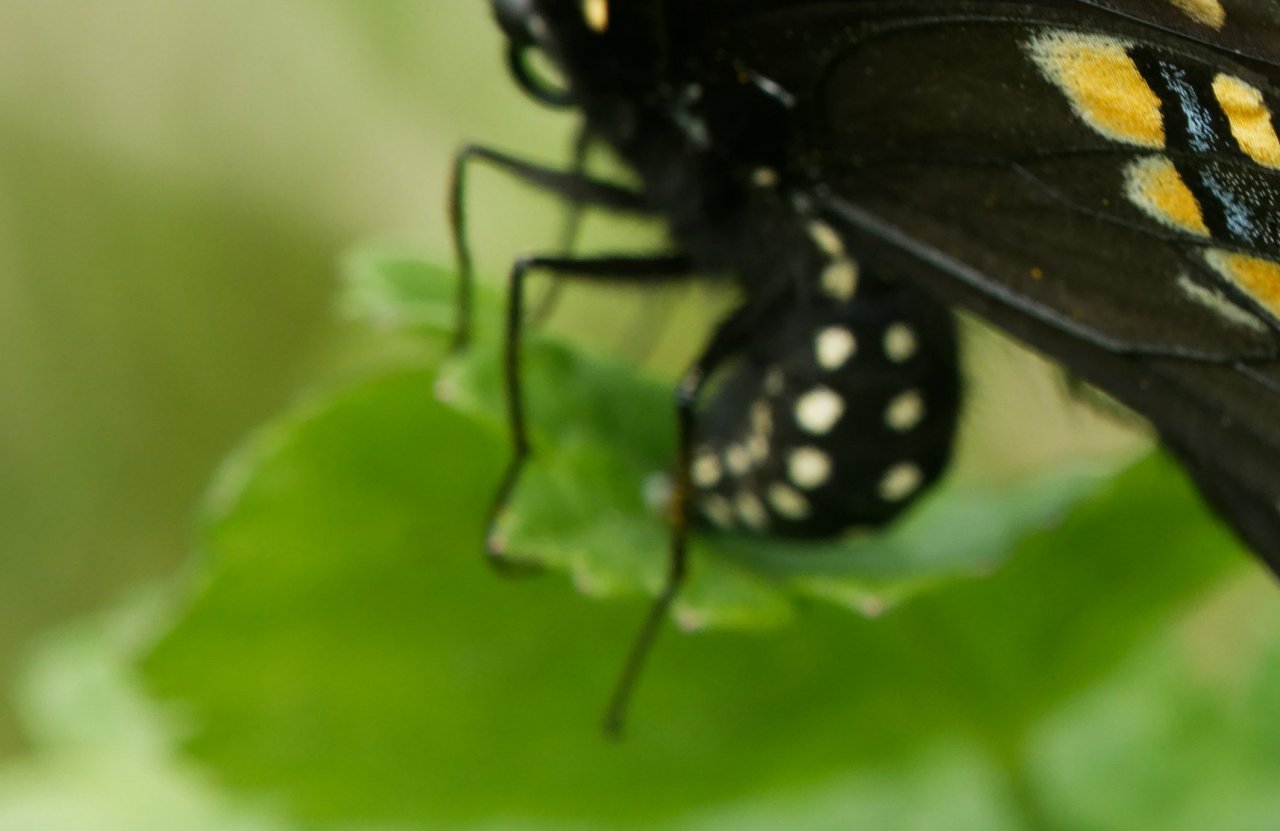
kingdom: Animalia
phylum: Arthropoda
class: Insecta
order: Lepidoptera
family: Papilionidae
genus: Papilio
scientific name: Papilio polyxenes
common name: Black Swallowtail
